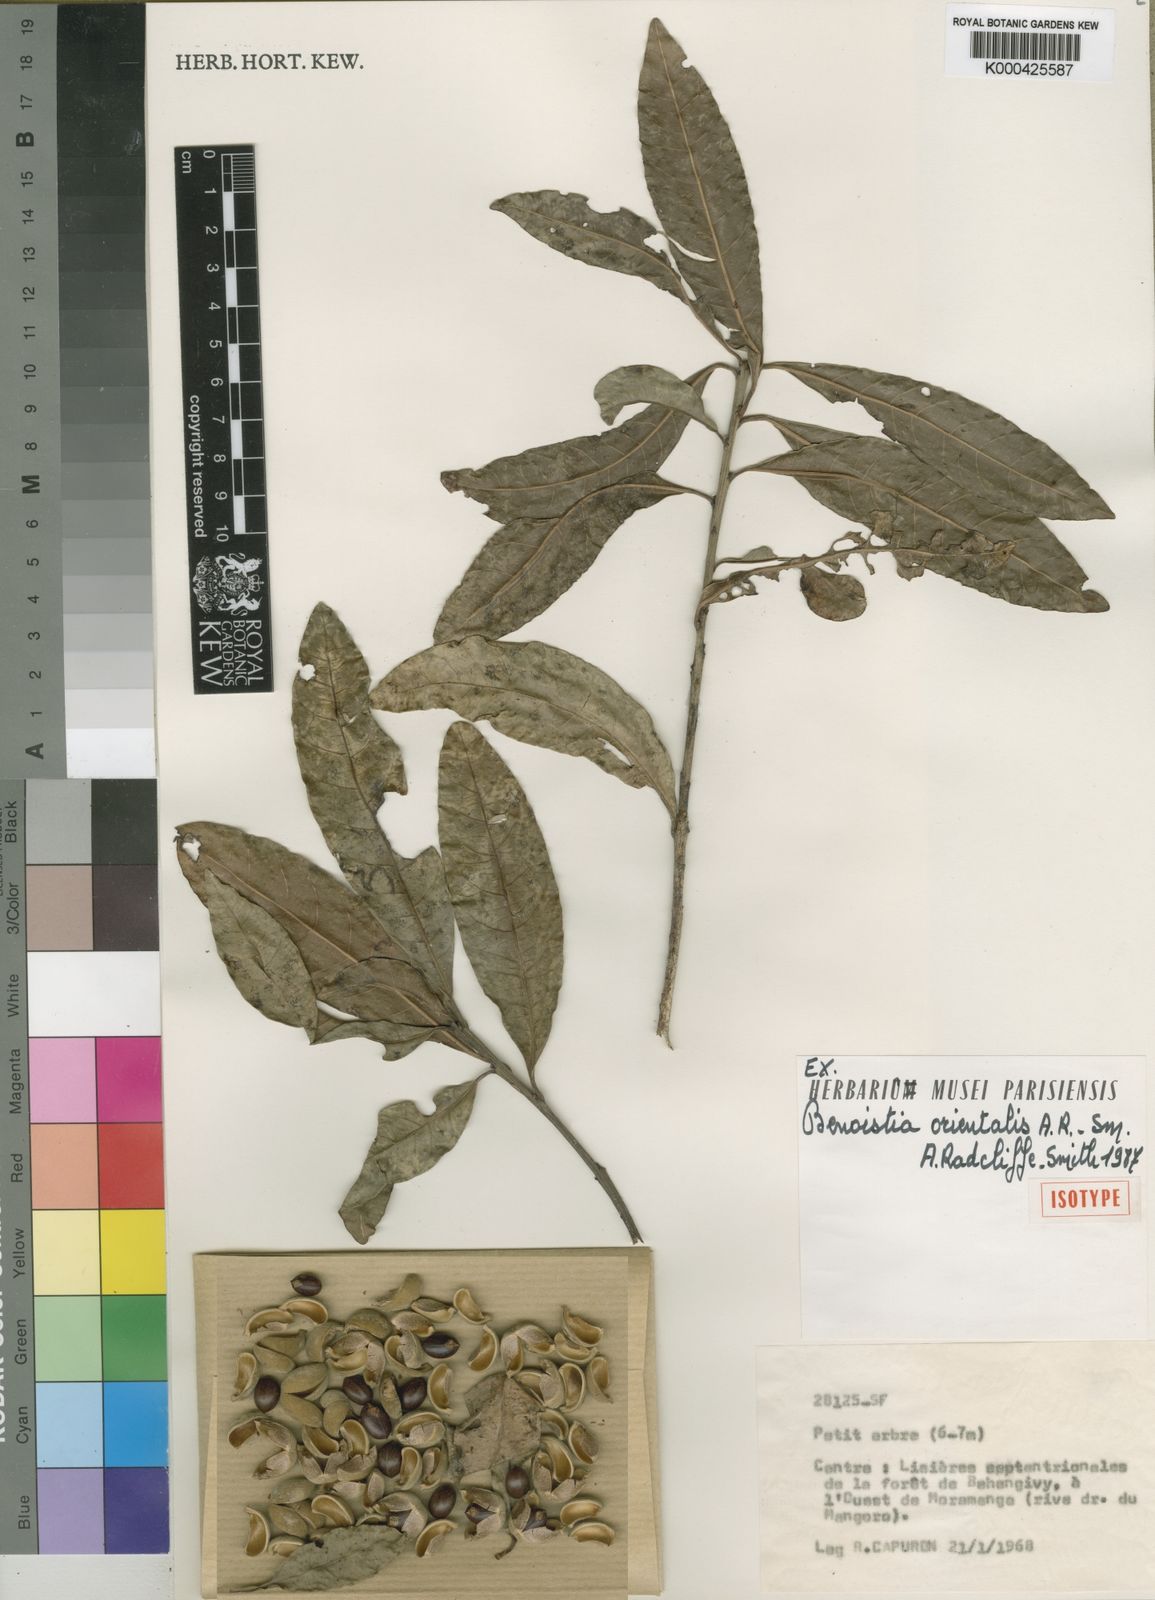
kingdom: Plantae
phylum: Tracheophyta
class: Magnoliopsida
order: Malpighiales
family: Euphorbiaceae
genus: Benoistia
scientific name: Benoistia orientalis
